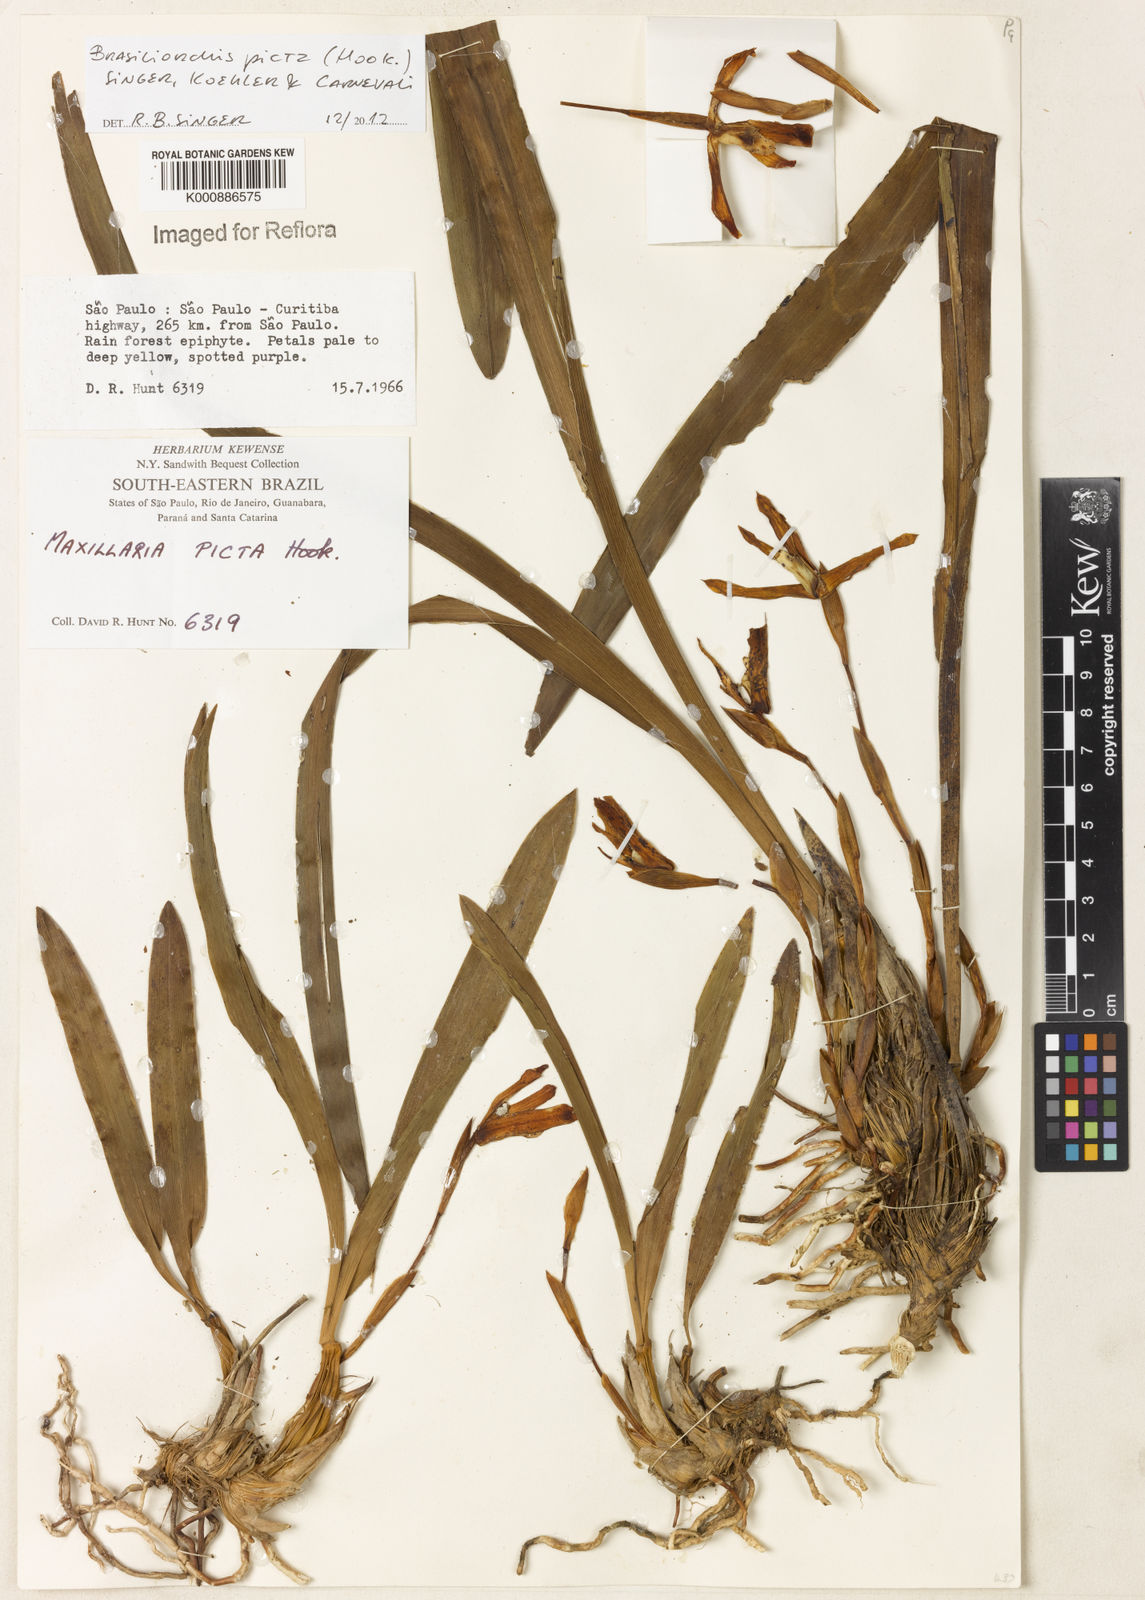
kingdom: Plantae
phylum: Tracheophyta
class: Liliopsida
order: Asparagales
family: Orchidaceae
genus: Maxillaria
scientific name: Maxillaria
